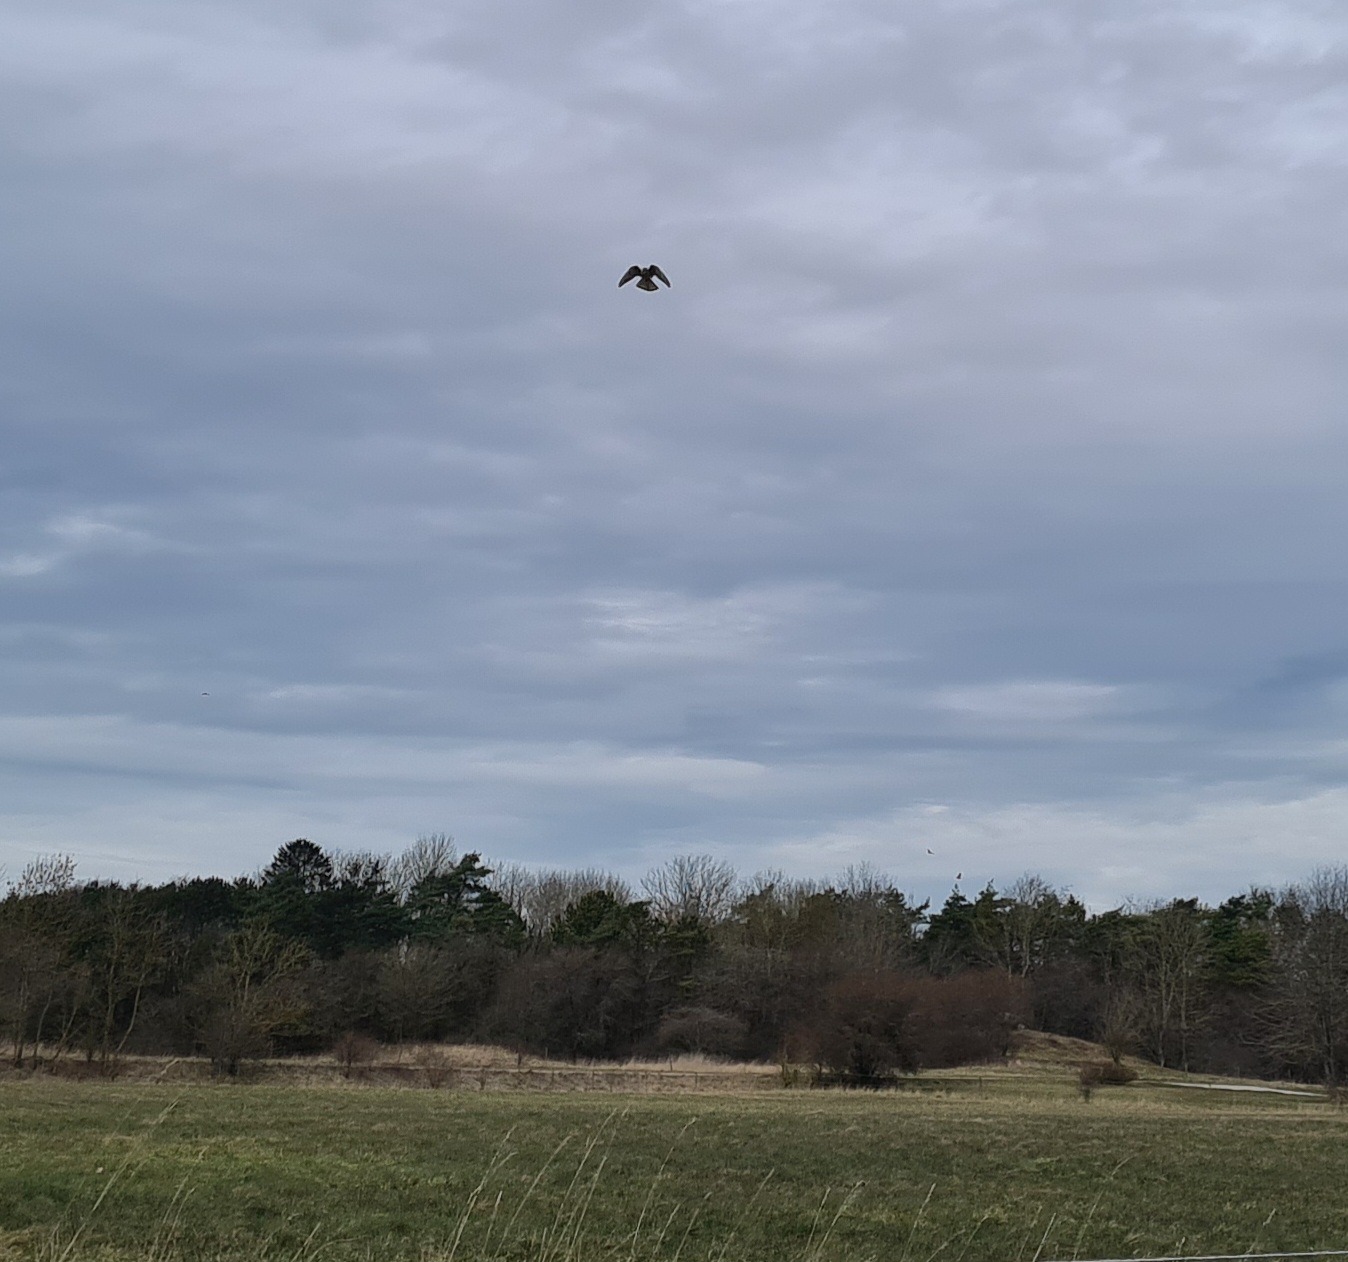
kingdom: Animalia
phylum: Chordata
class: Aves
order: Falconiformes
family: Falconidae
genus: Falco
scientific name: Falco tinnunculus
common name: Tårnfalk
